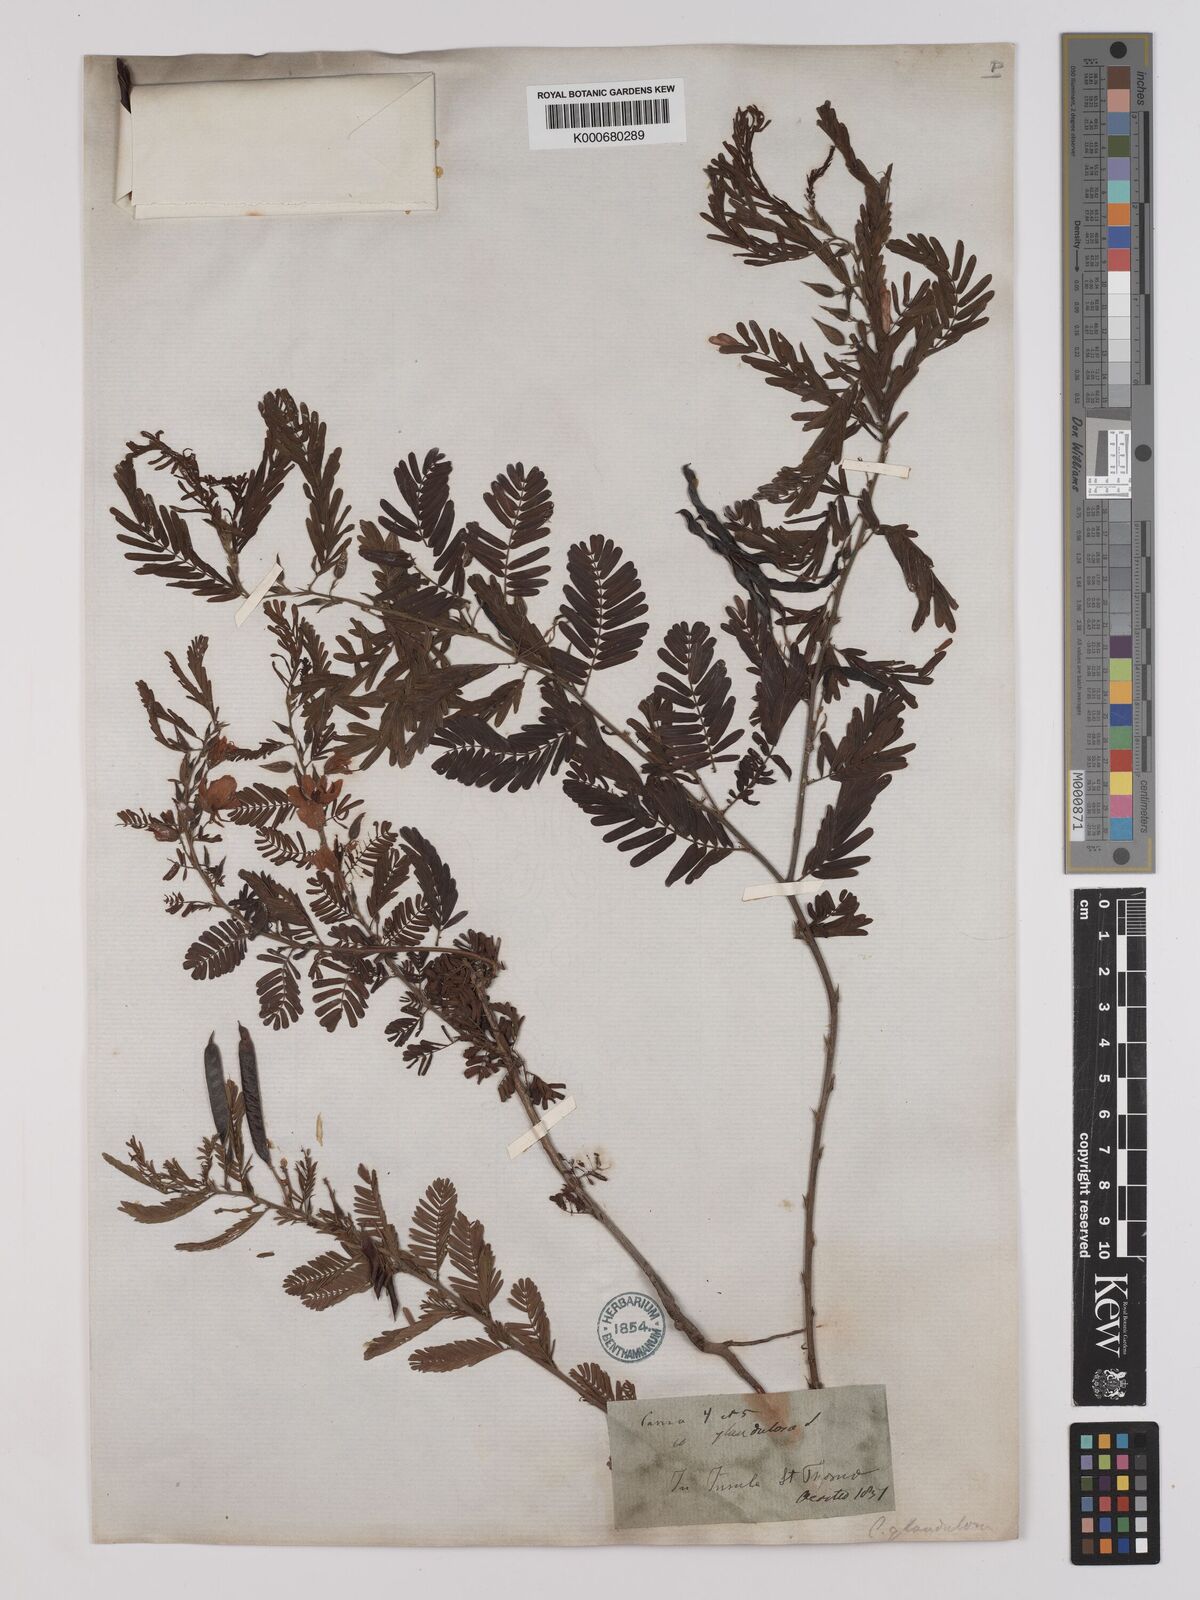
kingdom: Plantae
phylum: Tracheophyta
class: Magnoliopsida
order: Fabales
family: Fabaceae
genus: Chamaecrista
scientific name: Chamaecrista glandulosa
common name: Wild peas
